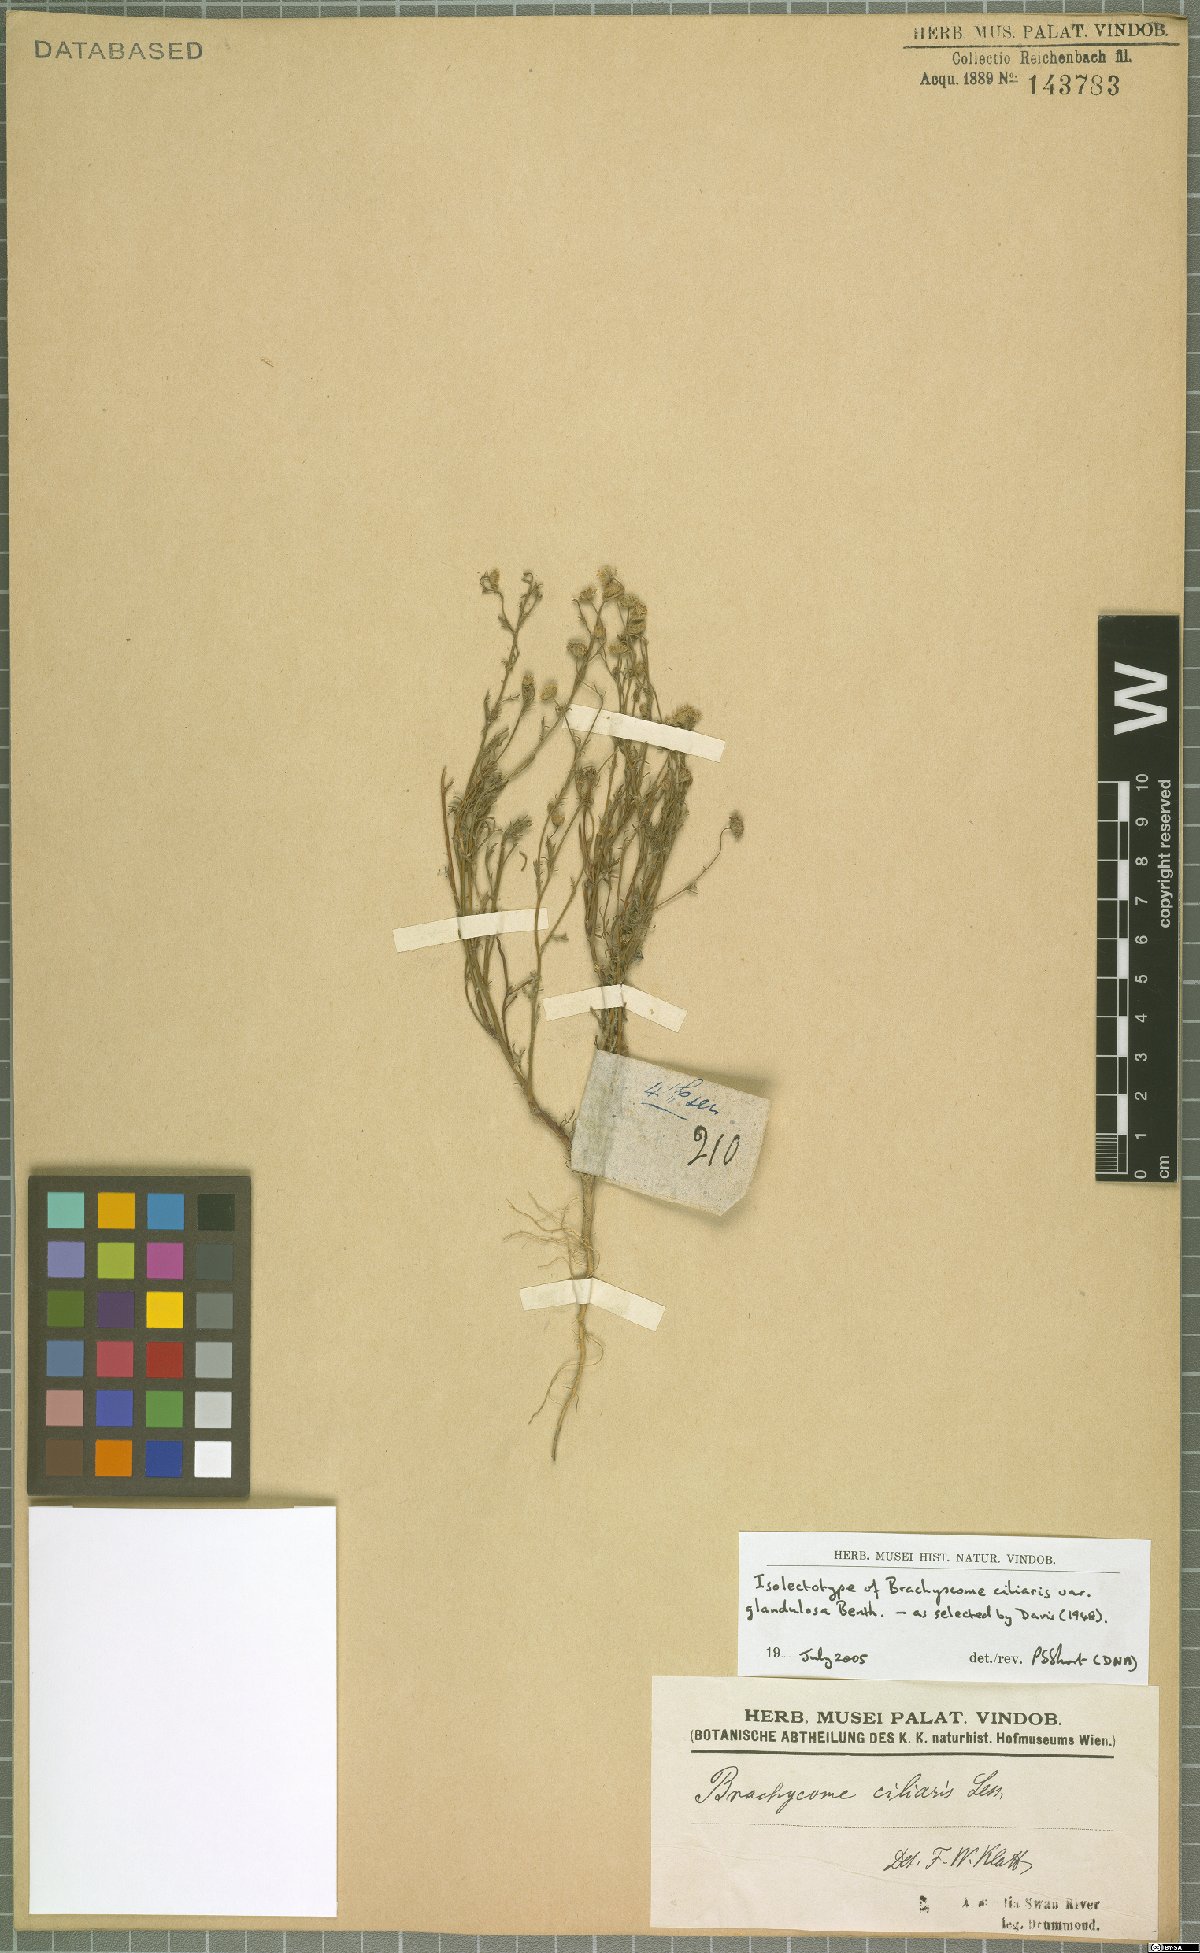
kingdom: Plantae
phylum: Tracheophyta
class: Magnoliopsida
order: Asterales
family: Asteraceae
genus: Brachyscome
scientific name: Brachyscome ciliaris
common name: Variable daisy
